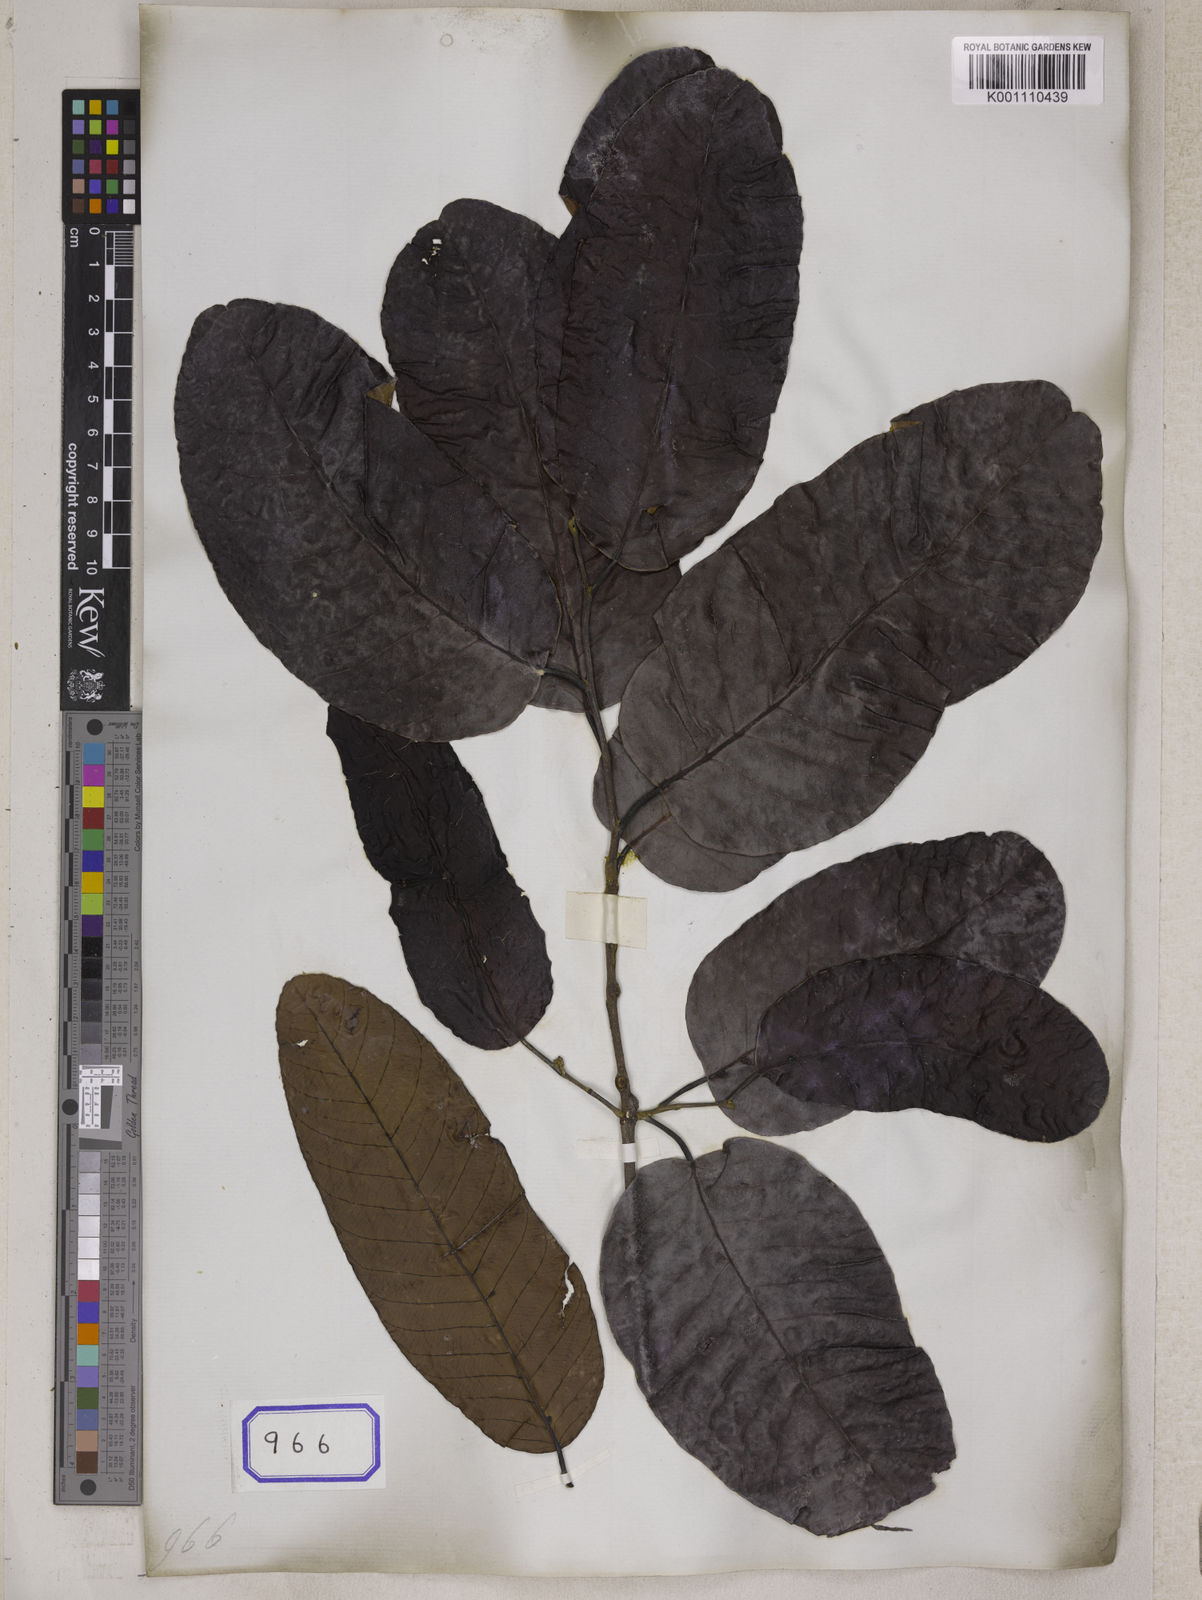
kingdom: Plantae
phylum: Tracheophyta
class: Magnoliopsida
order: Malvales
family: Dipterocarpaceae
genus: Shorea
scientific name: Shorea
